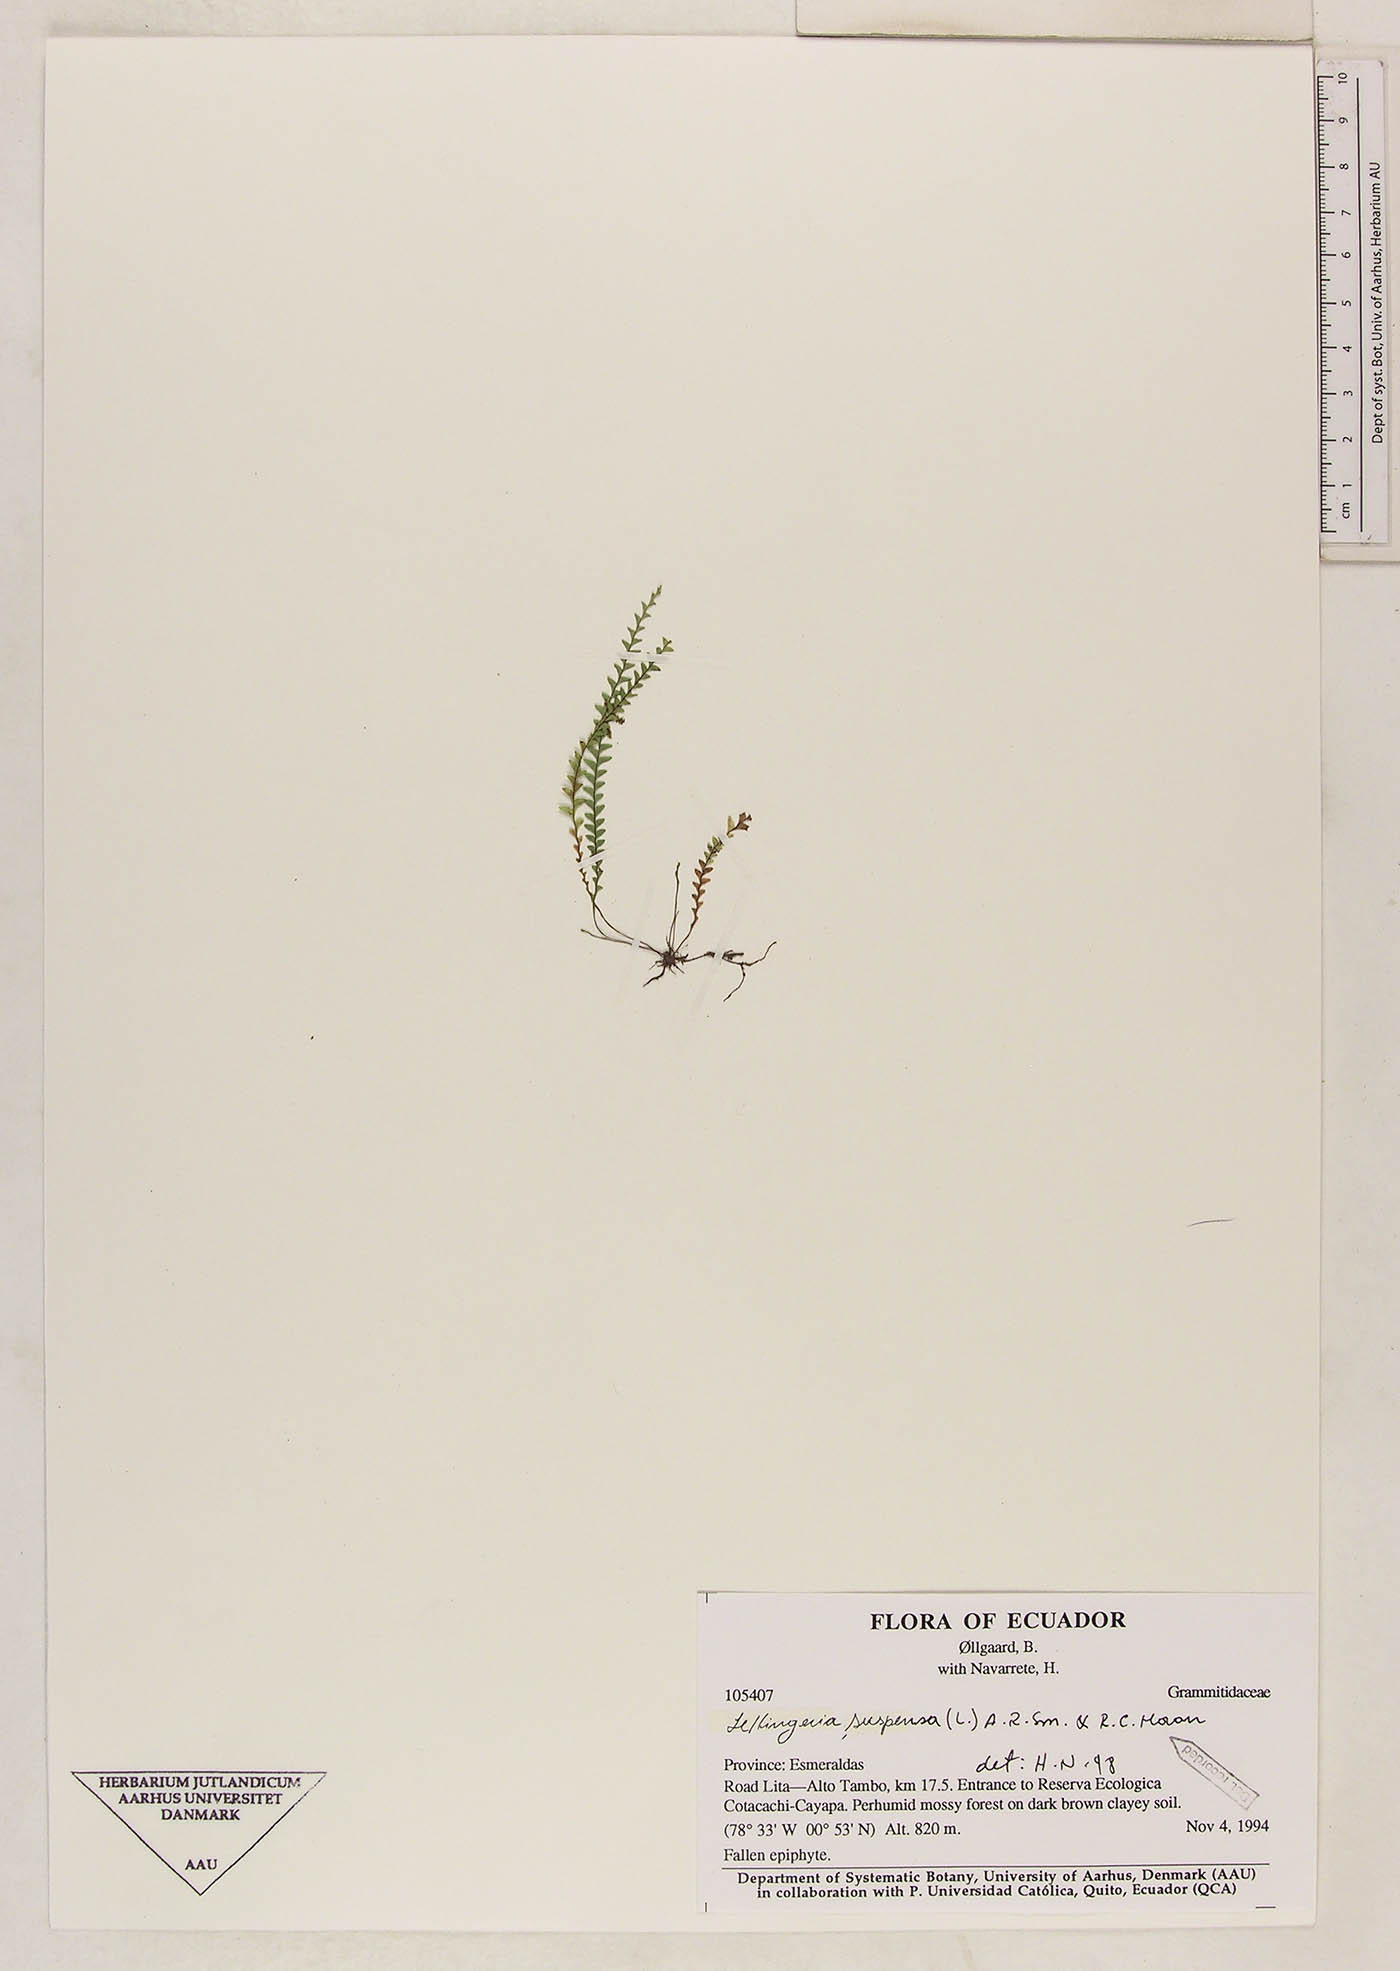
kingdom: Plantae
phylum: Tracheophyta
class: Polypodiopsida
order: Polypodiales
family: Polypodiaceae
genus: Lellingeria
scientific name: Lellingeria suspensa
